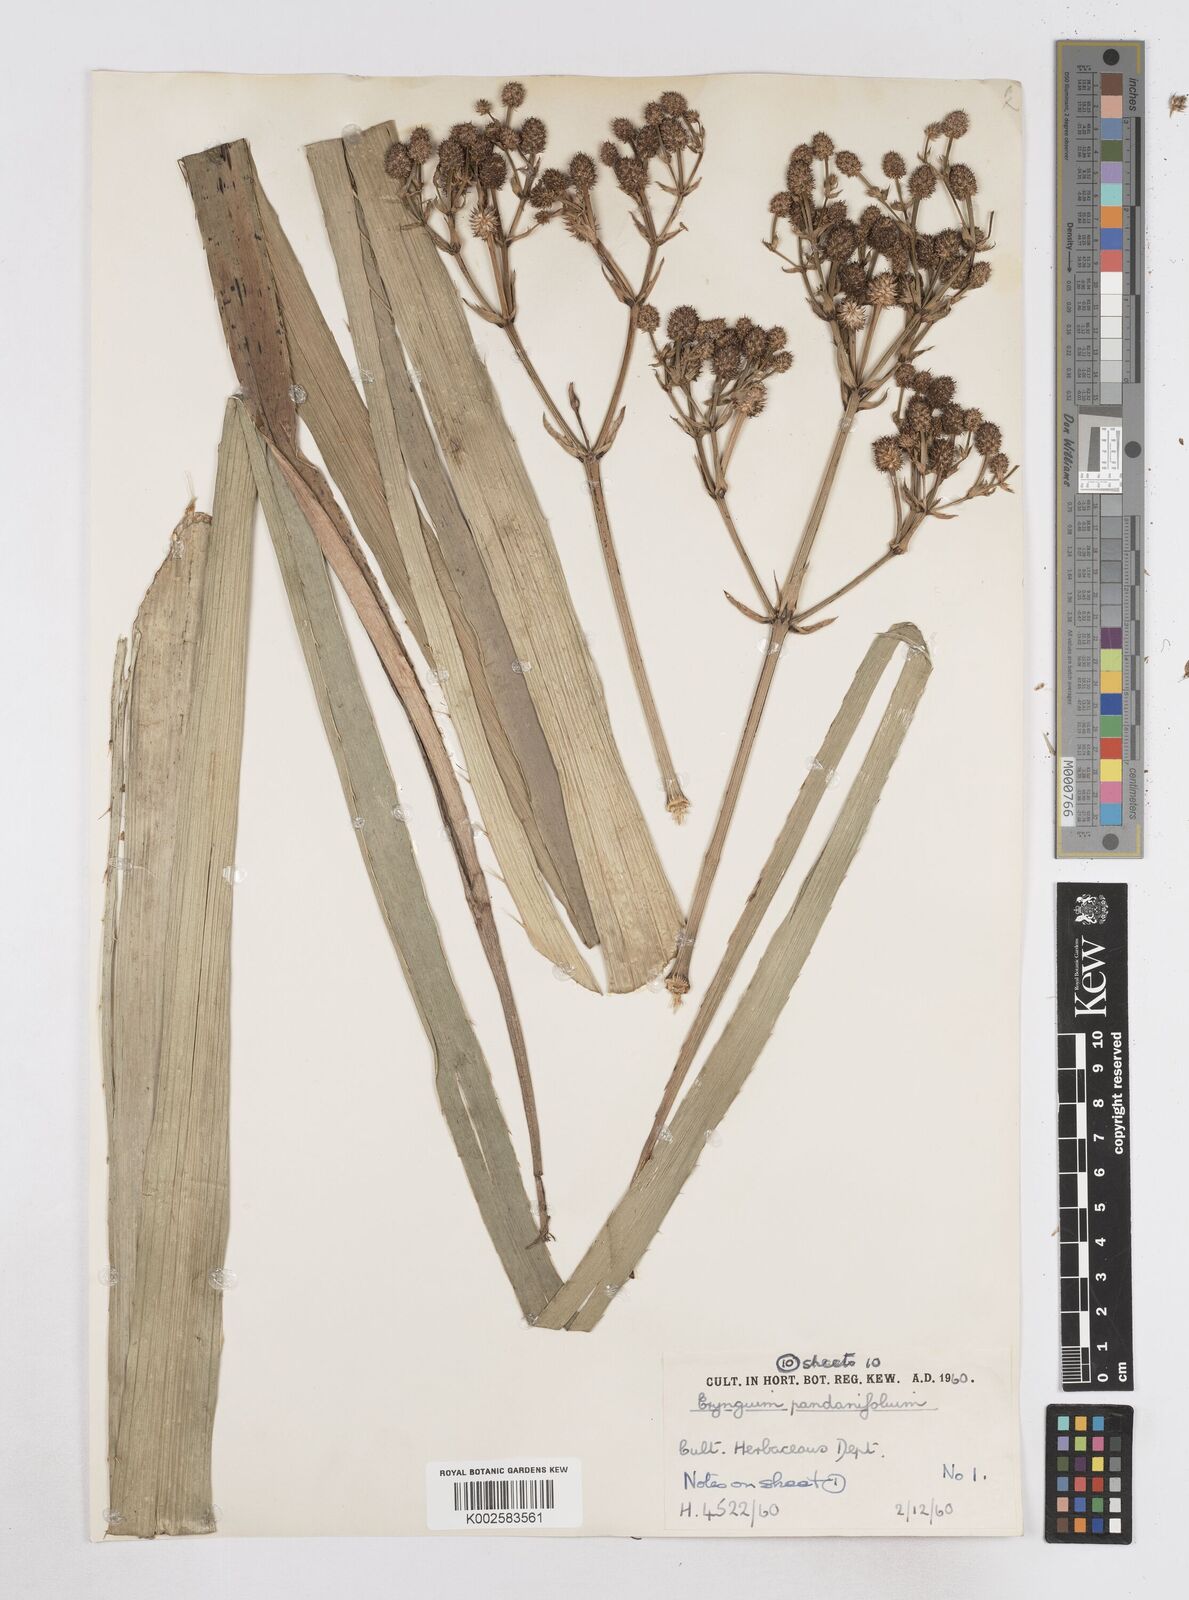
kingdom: Plantae
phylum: Tracheophyta
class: Magnoliopsida
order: Apiales
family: Apiaceae
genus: Eryngium
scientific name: Eryngium pandanifolium
